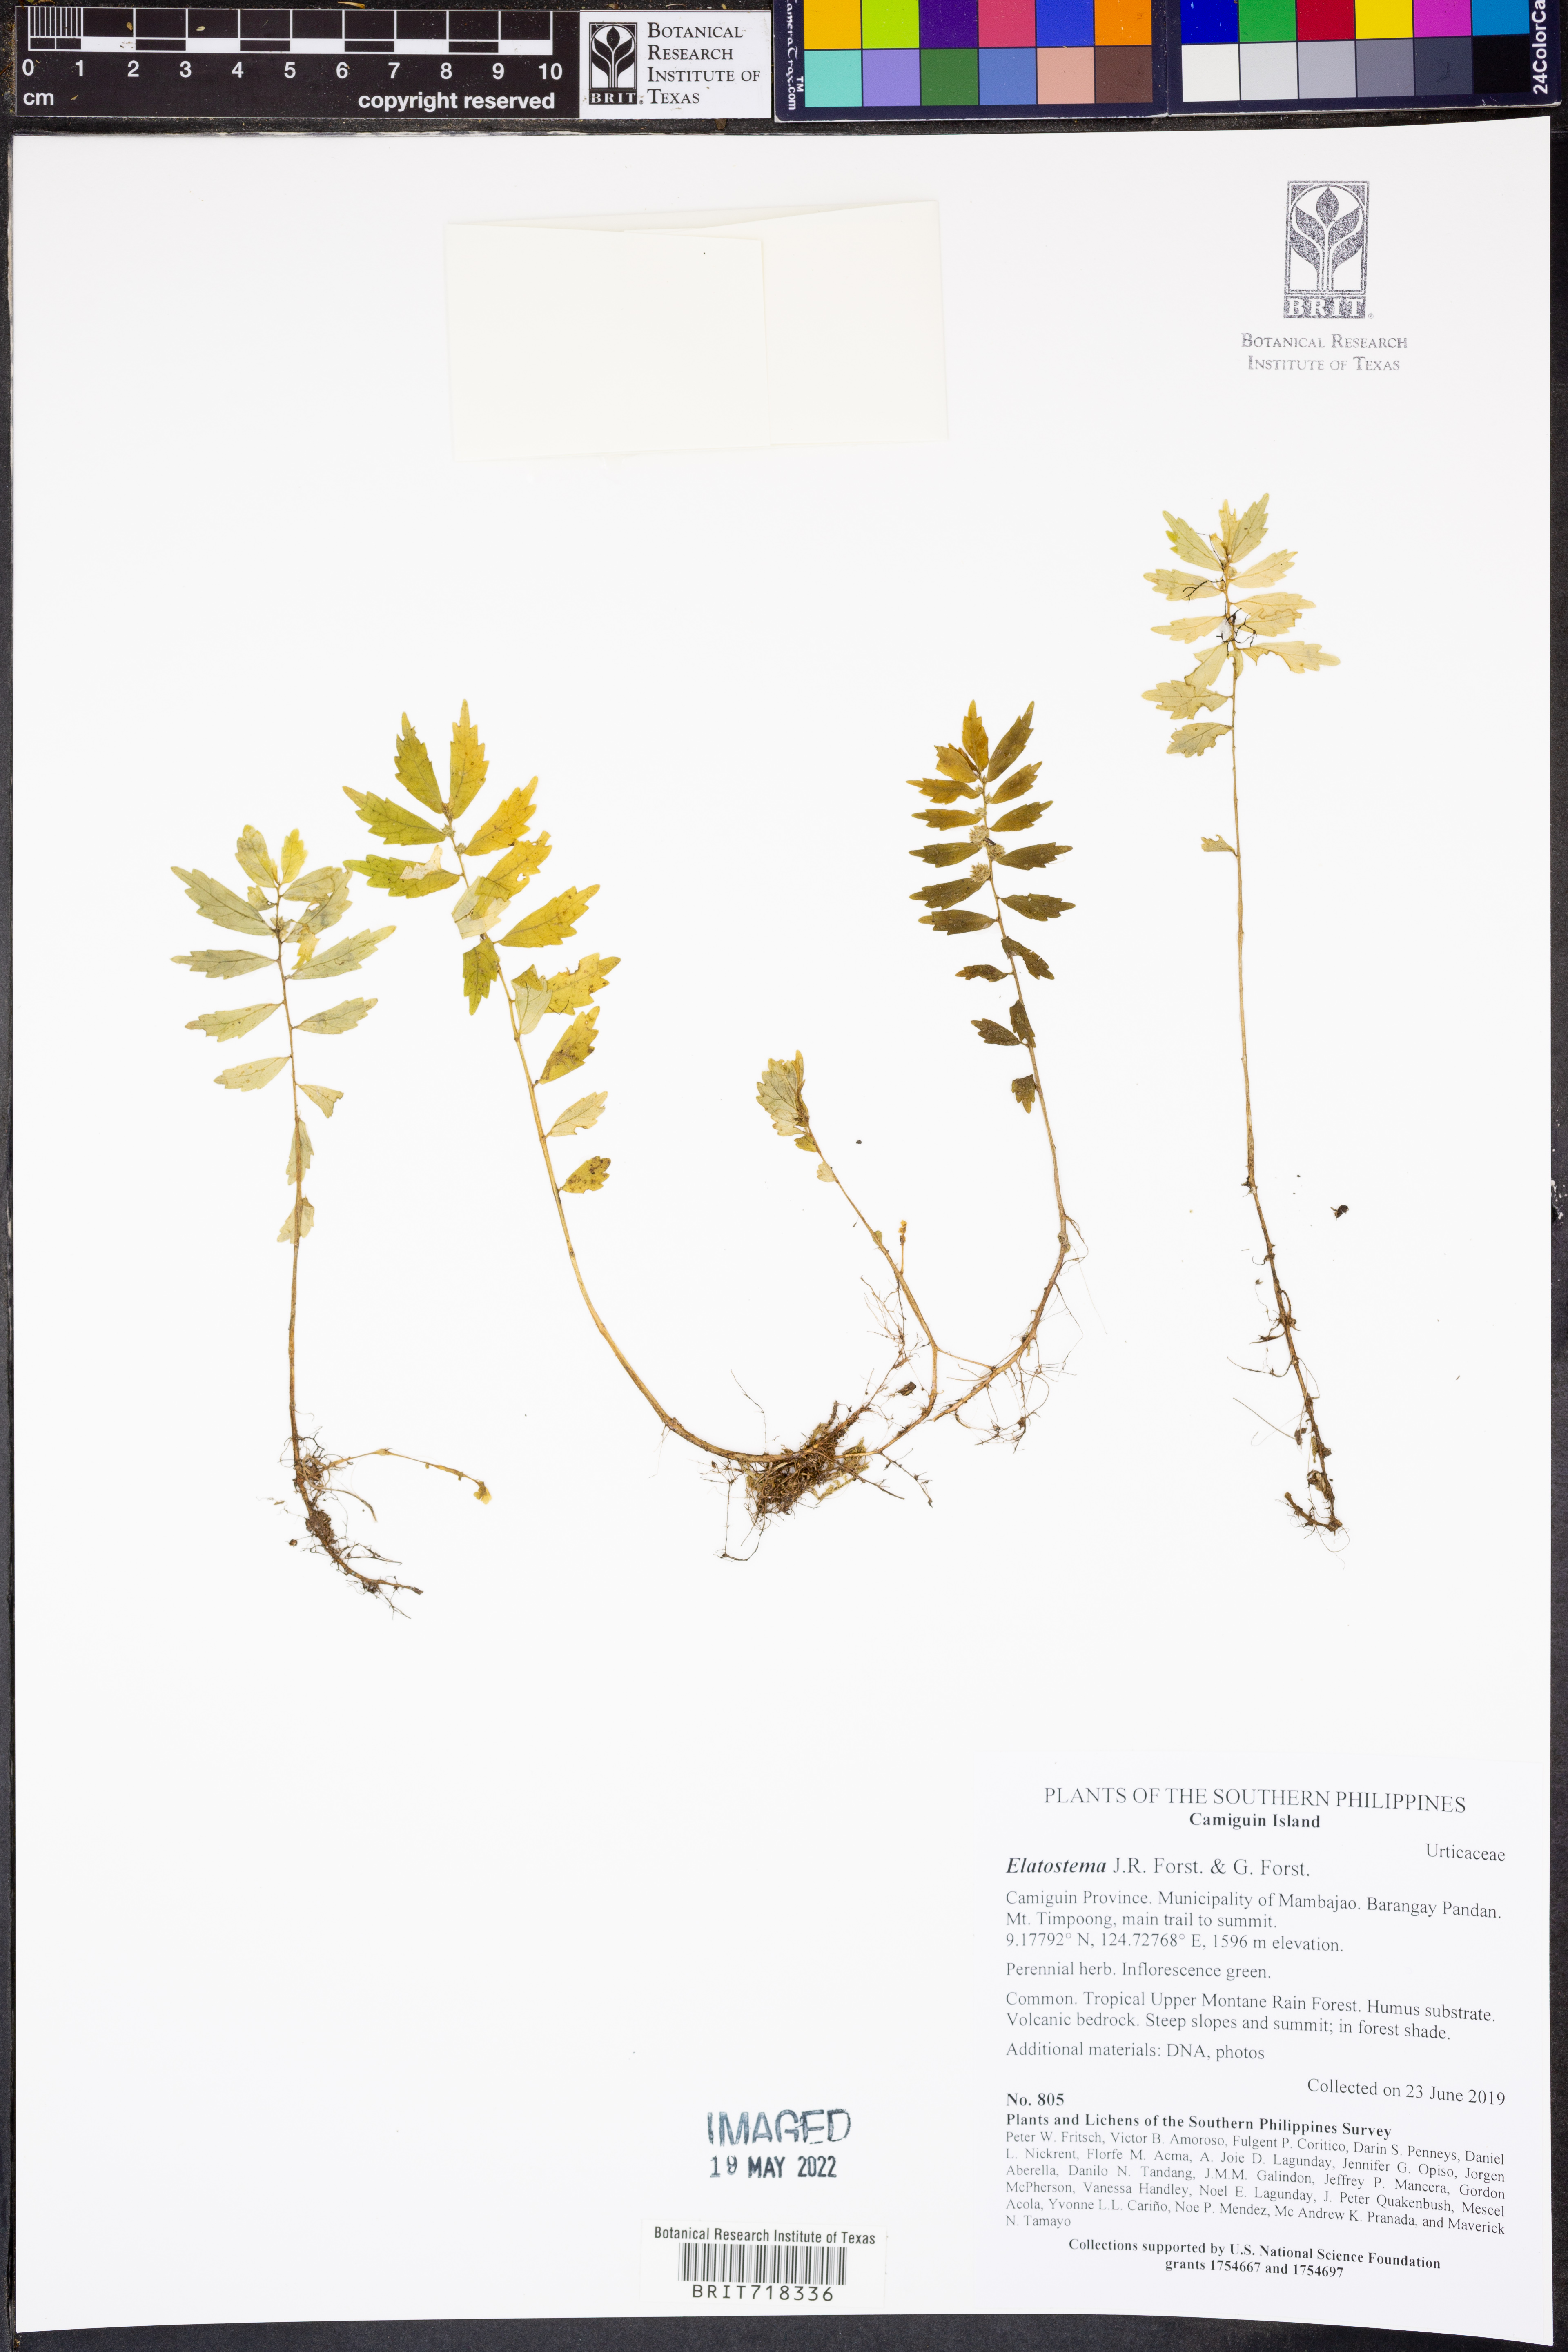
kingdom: Plantae
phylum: Tracheophyta
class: Magnoliopsida
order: Rosales
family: Urticaceae
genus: Elatostema
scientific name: Elatostema
